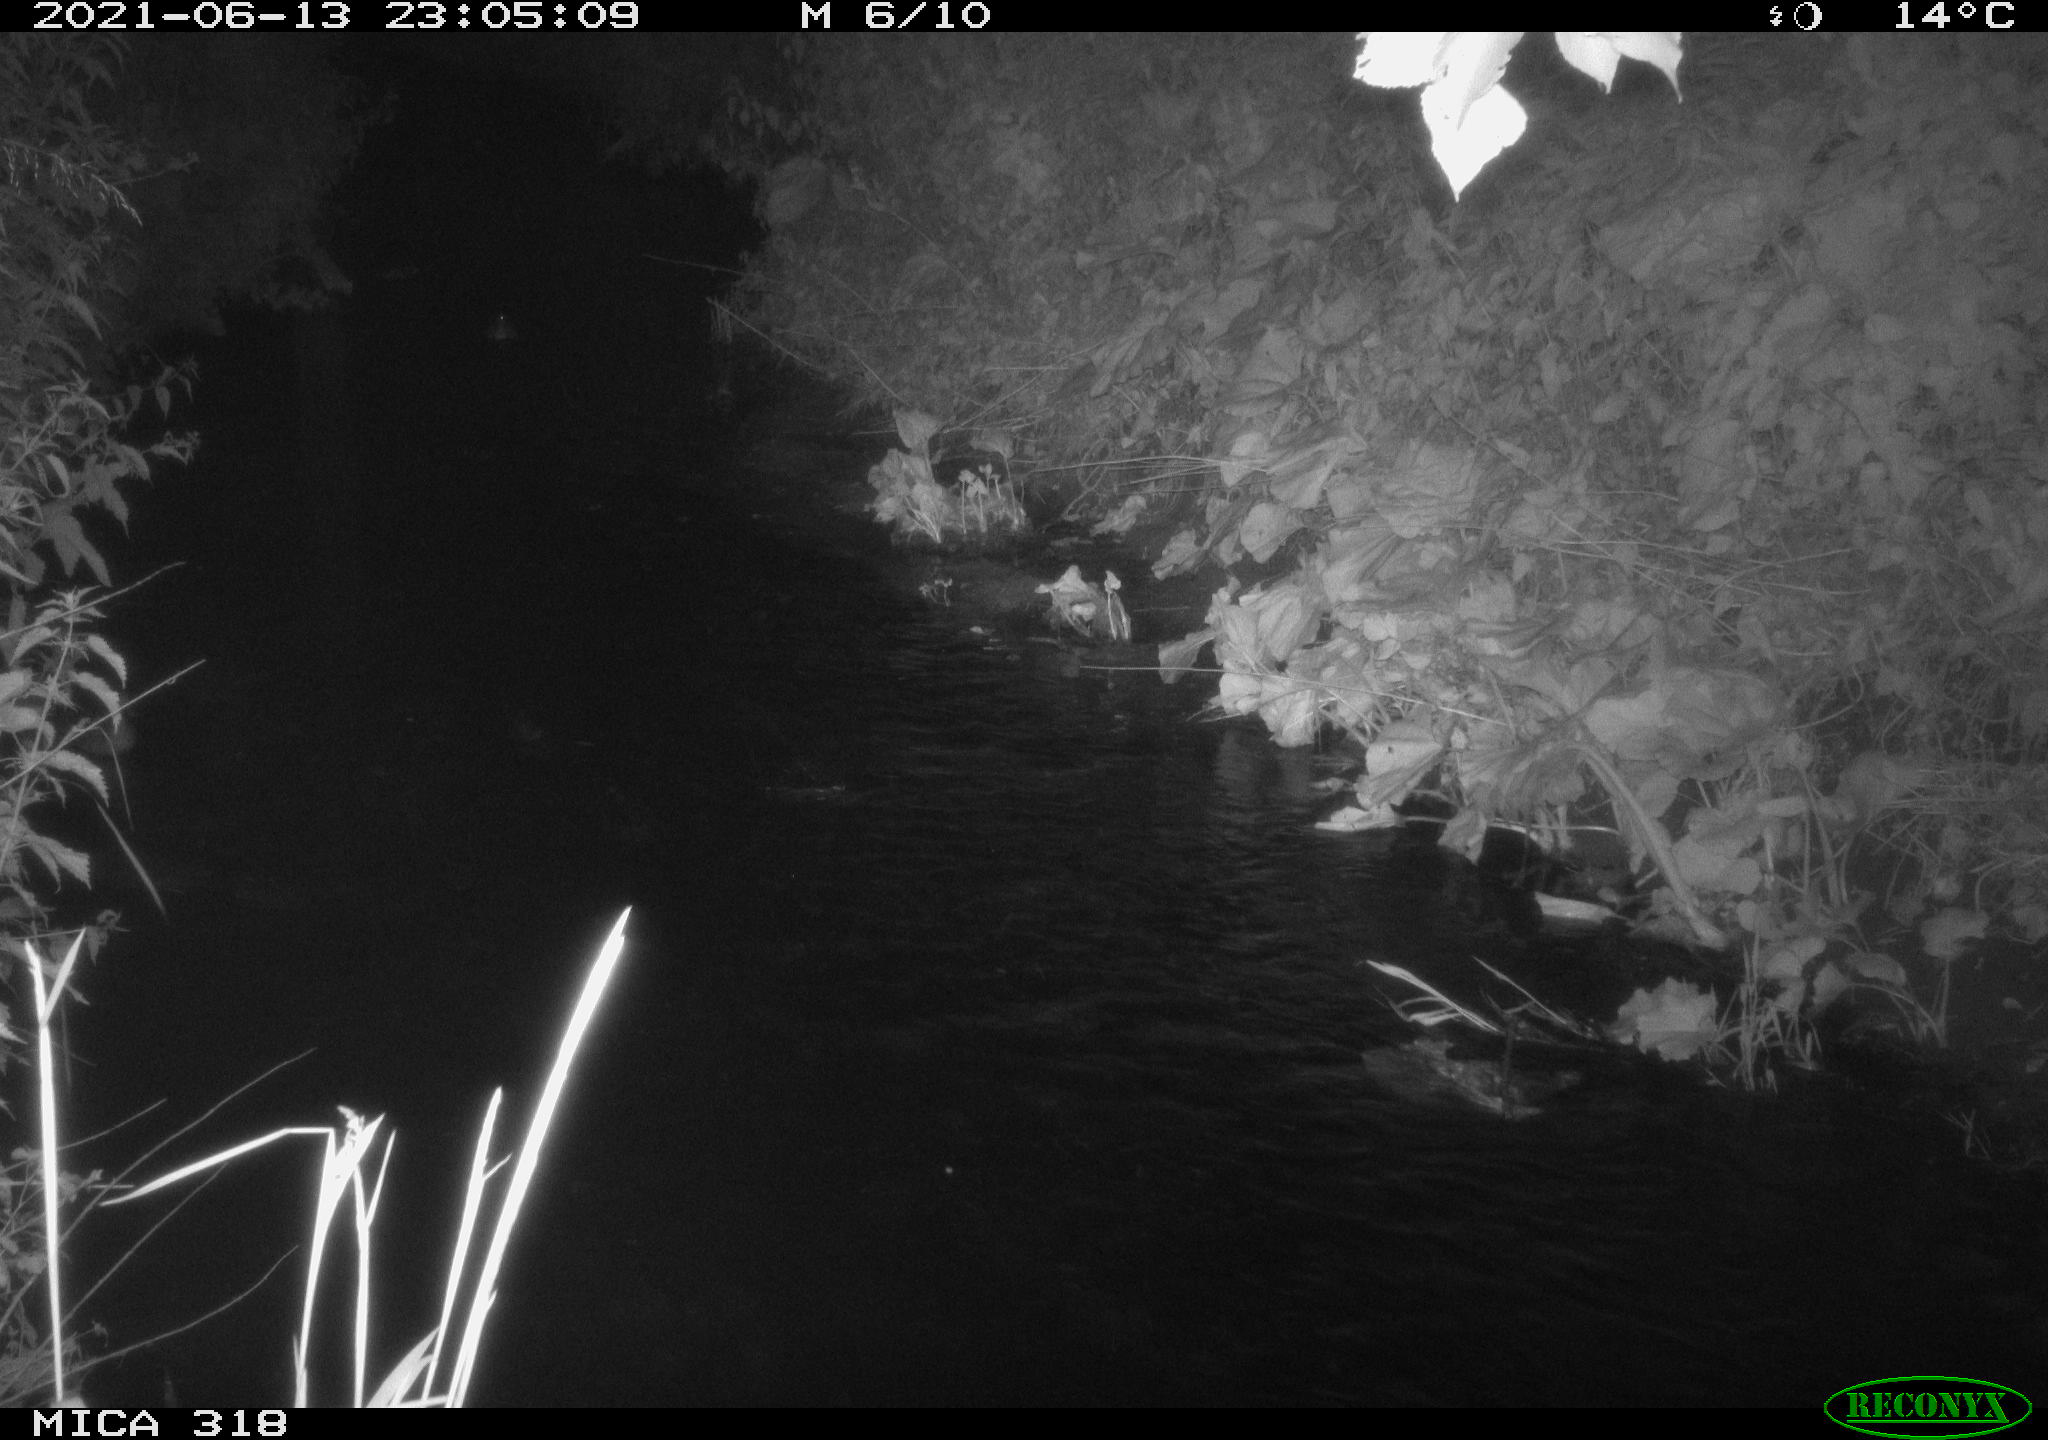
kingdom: Animalia
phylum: Chordata
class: Aves
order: Pelecaniformes
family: Ardeidae
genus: Ardea
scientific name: Ardea cinerea
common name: Grey heron
